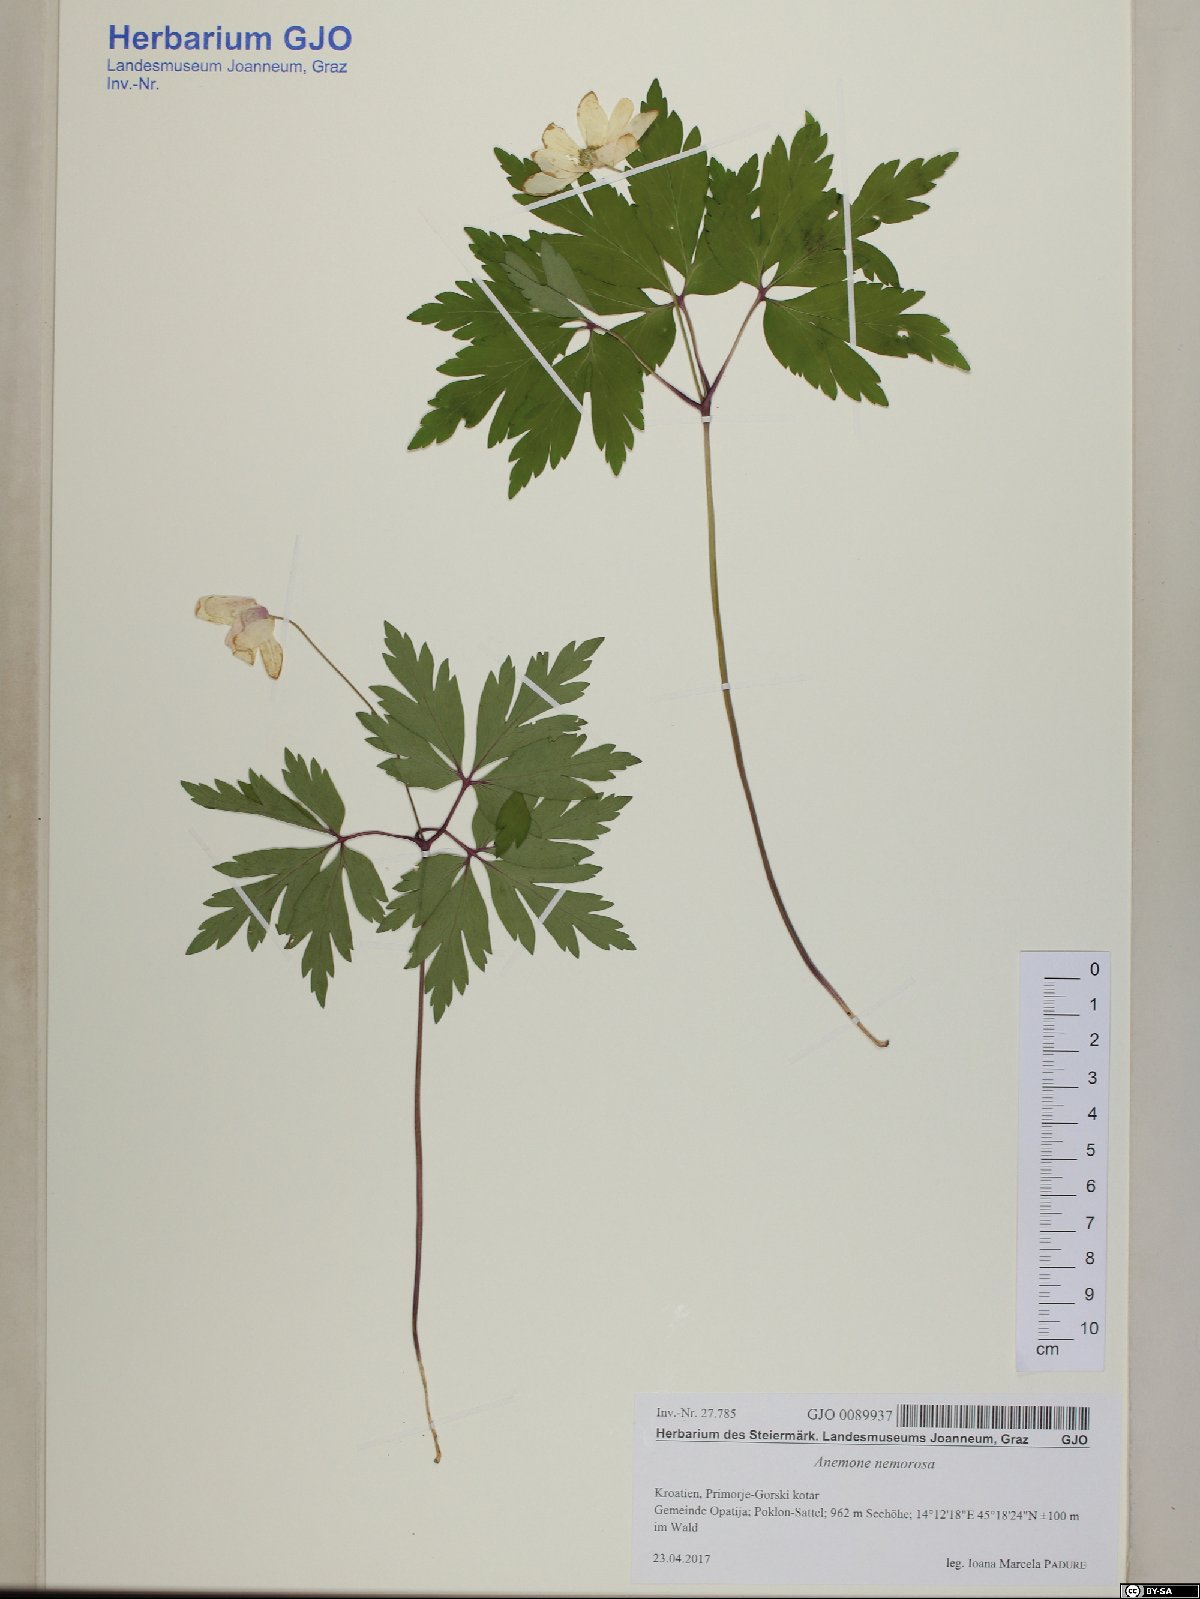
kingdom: Plantae
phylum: Tracheophyta
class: Magnoliopsida
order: Ranunculales
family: Ranunculaceae
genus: Anemone
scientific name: Anemone nemorosa
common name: Wood anemone
